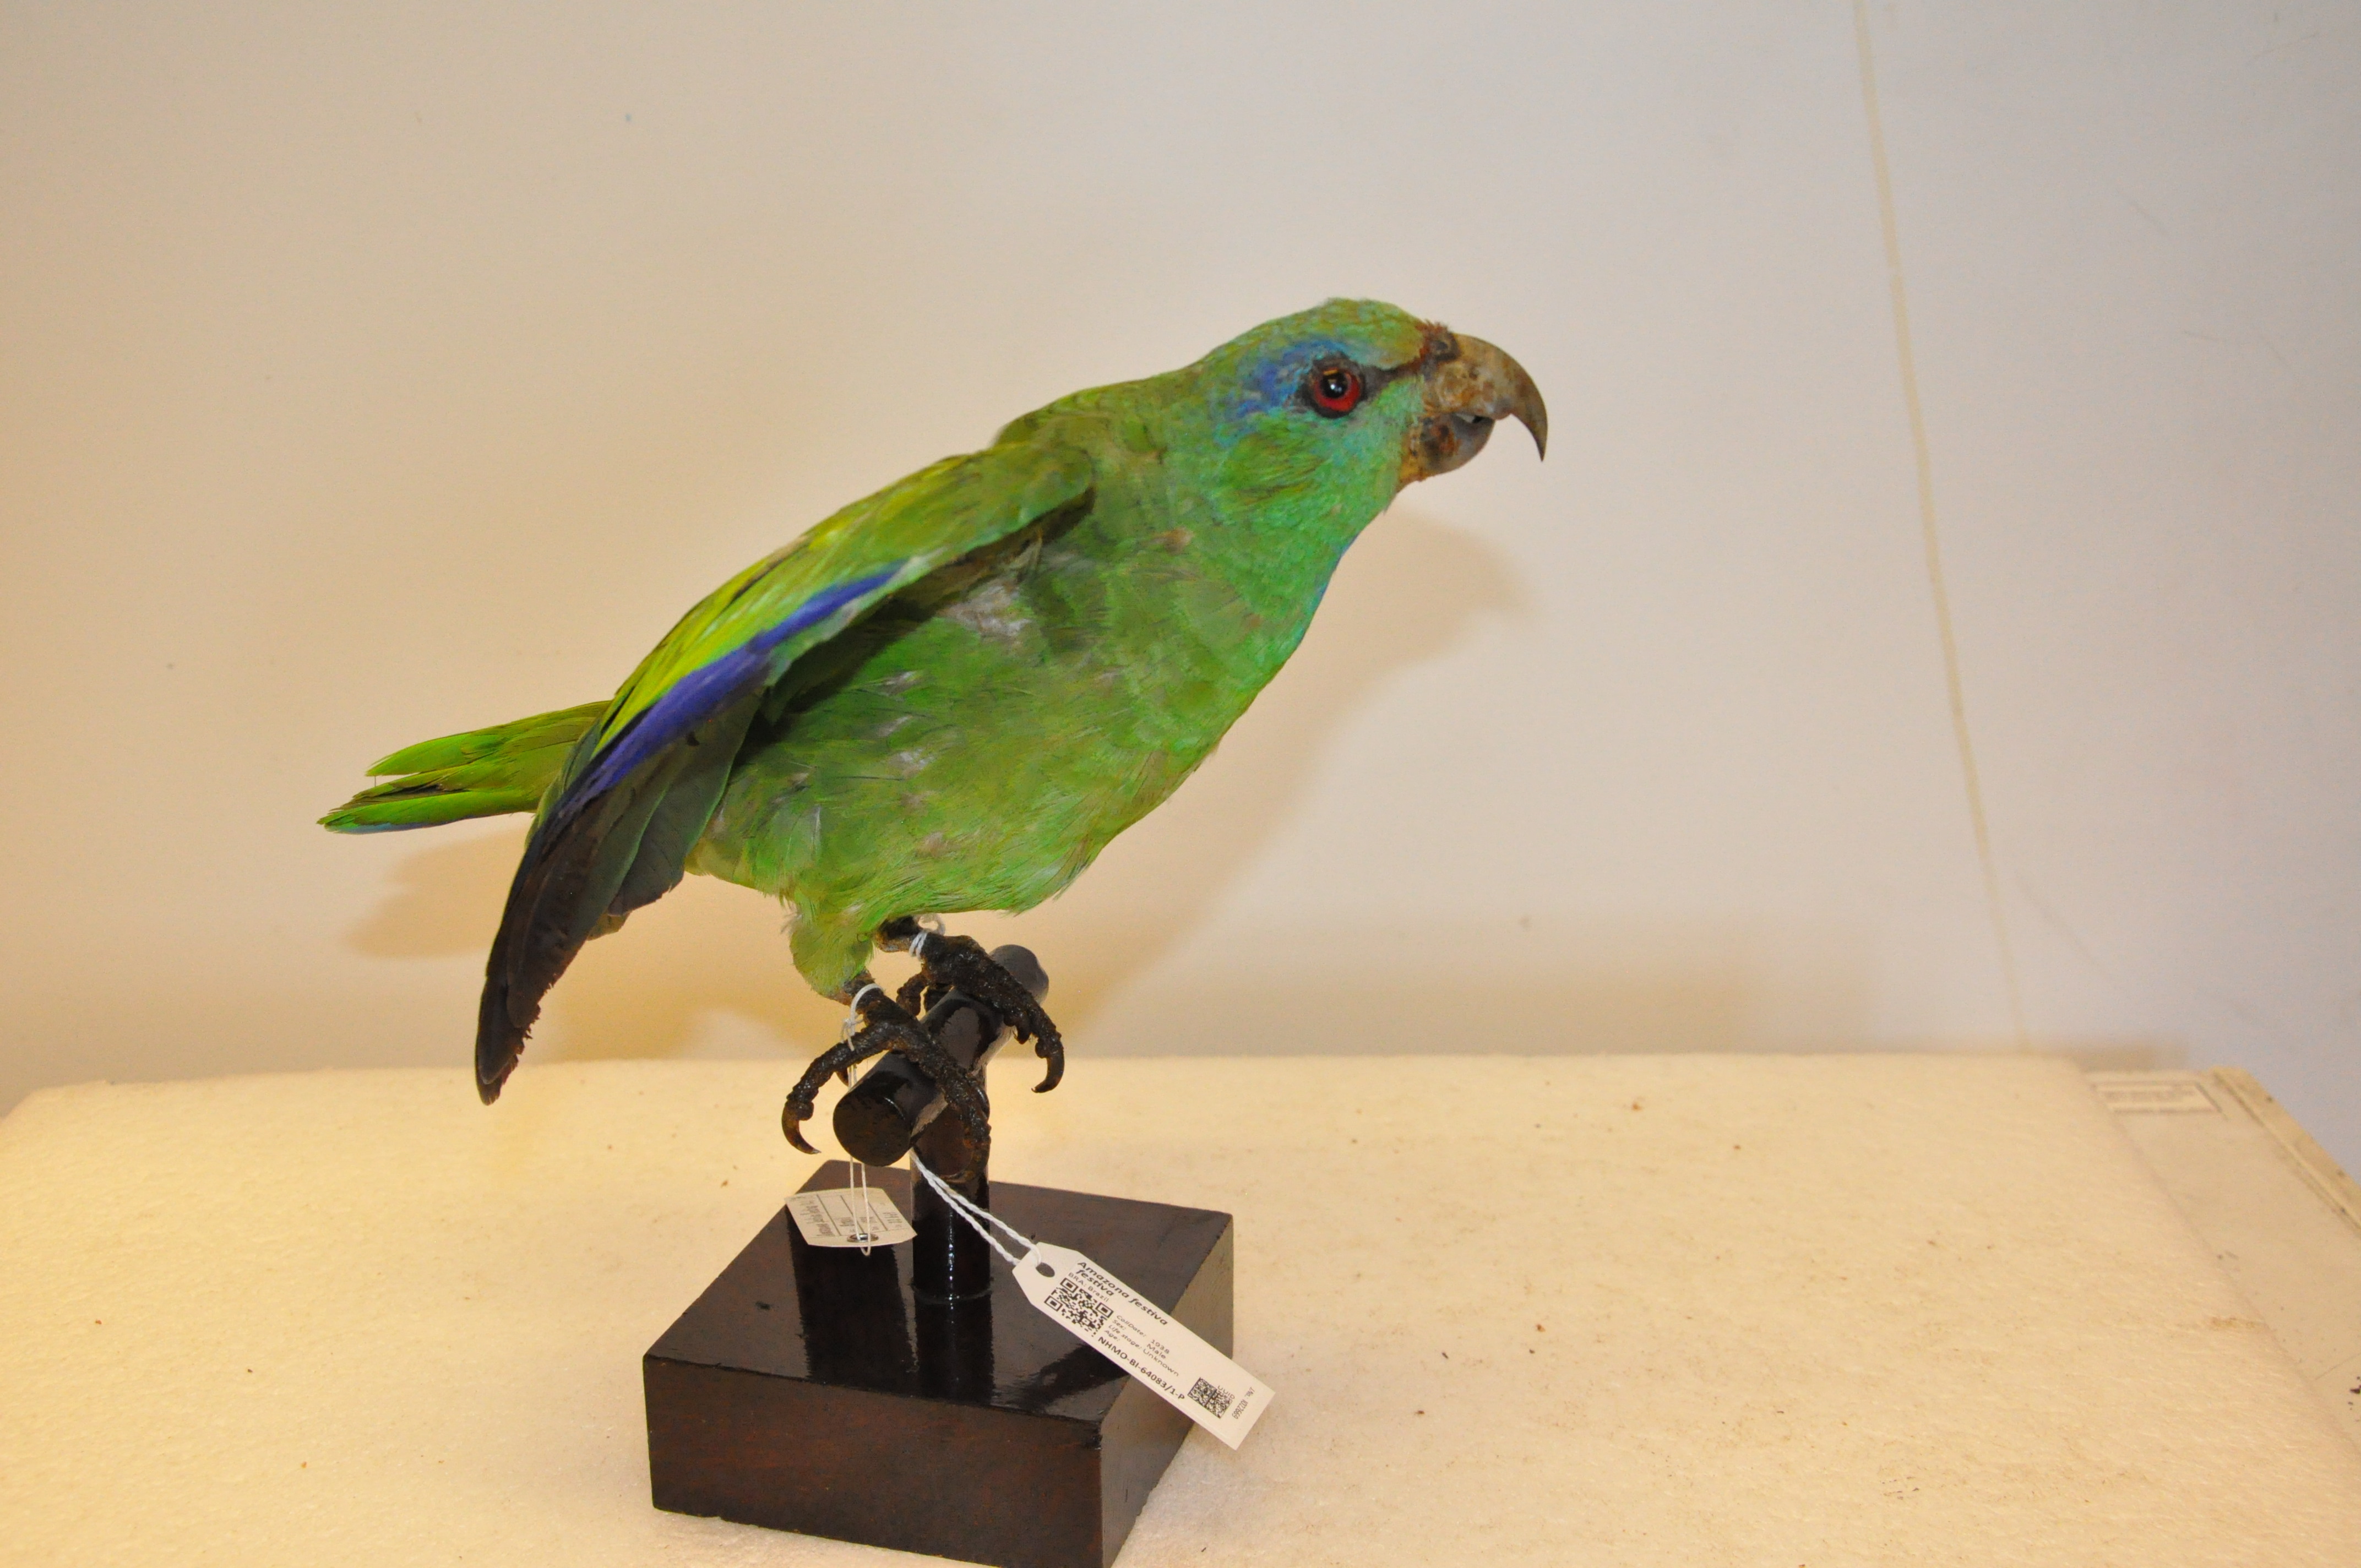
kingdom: Animalia
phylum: Chordata
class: Aves
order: Psittaciformes
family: Psittacidae
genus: Amazona
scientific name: Amazona festiva
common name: Festive amazon
